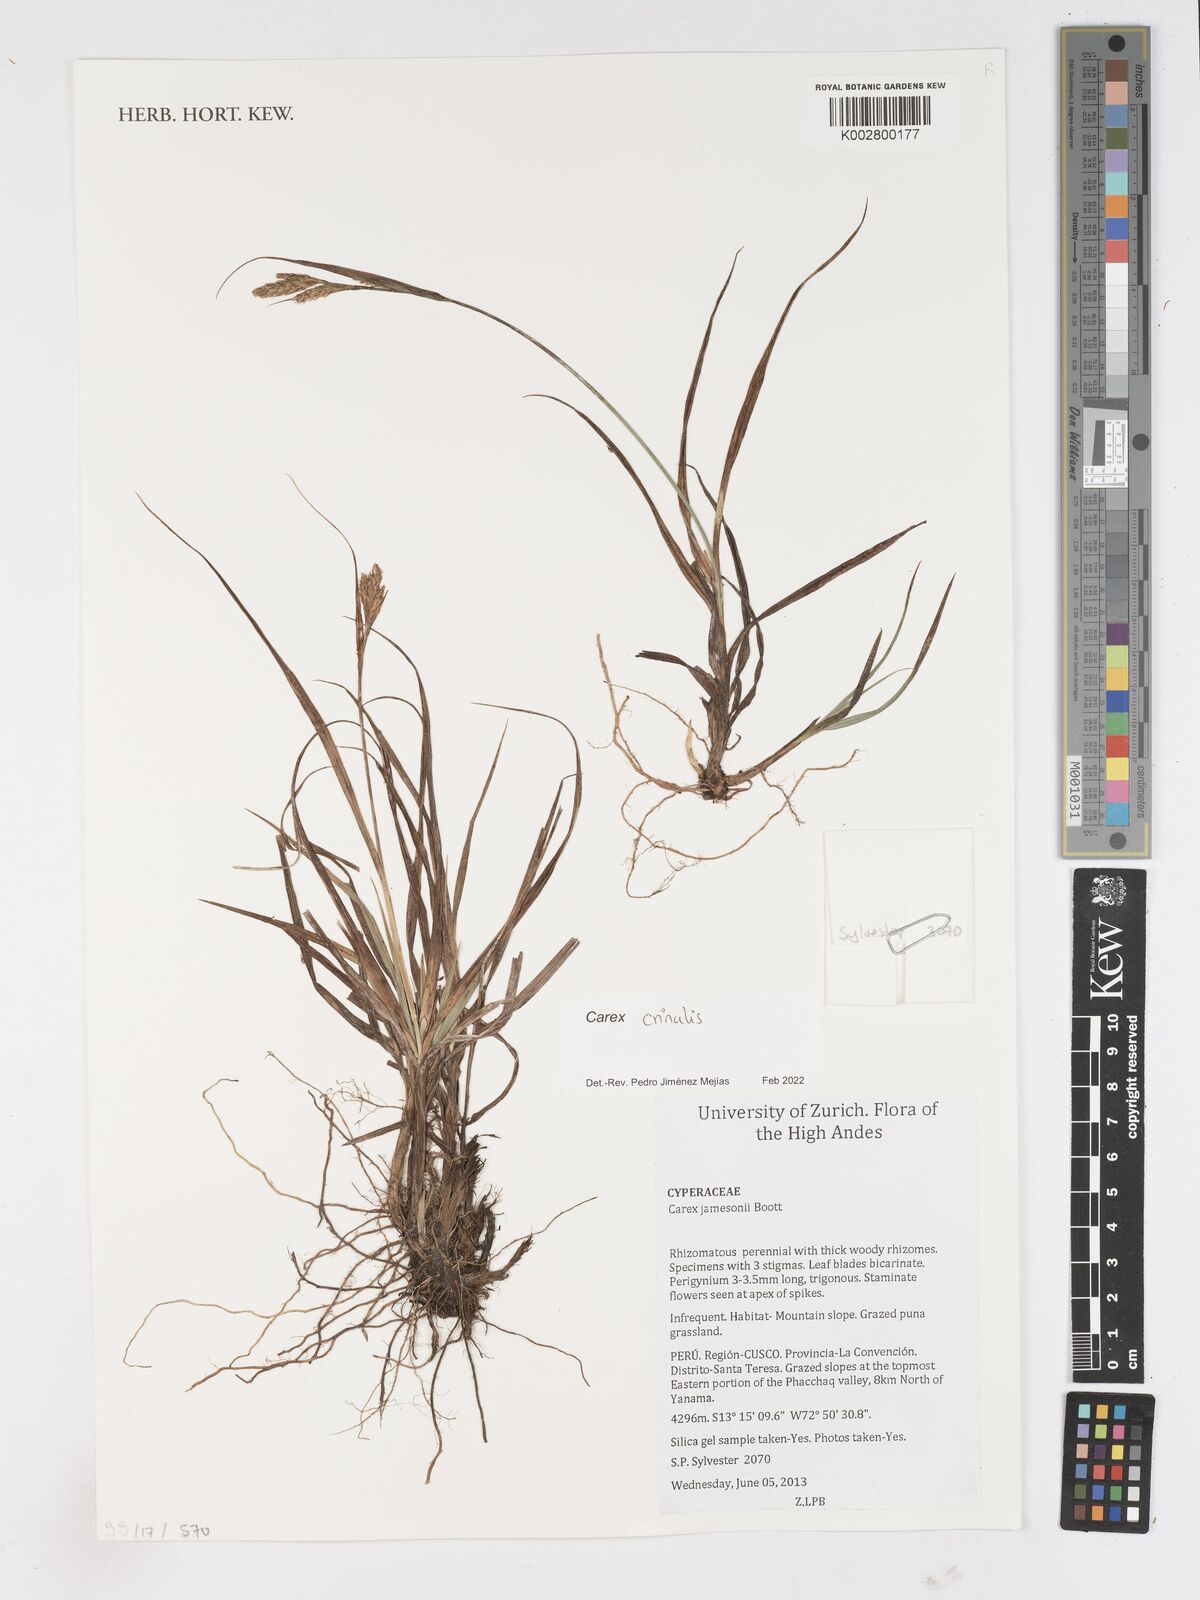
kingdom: Plantae
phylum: Tracheophyta
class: Liliopsida
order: Poales
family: Cyperaceae
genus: Carex
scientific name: Carex crinalis
